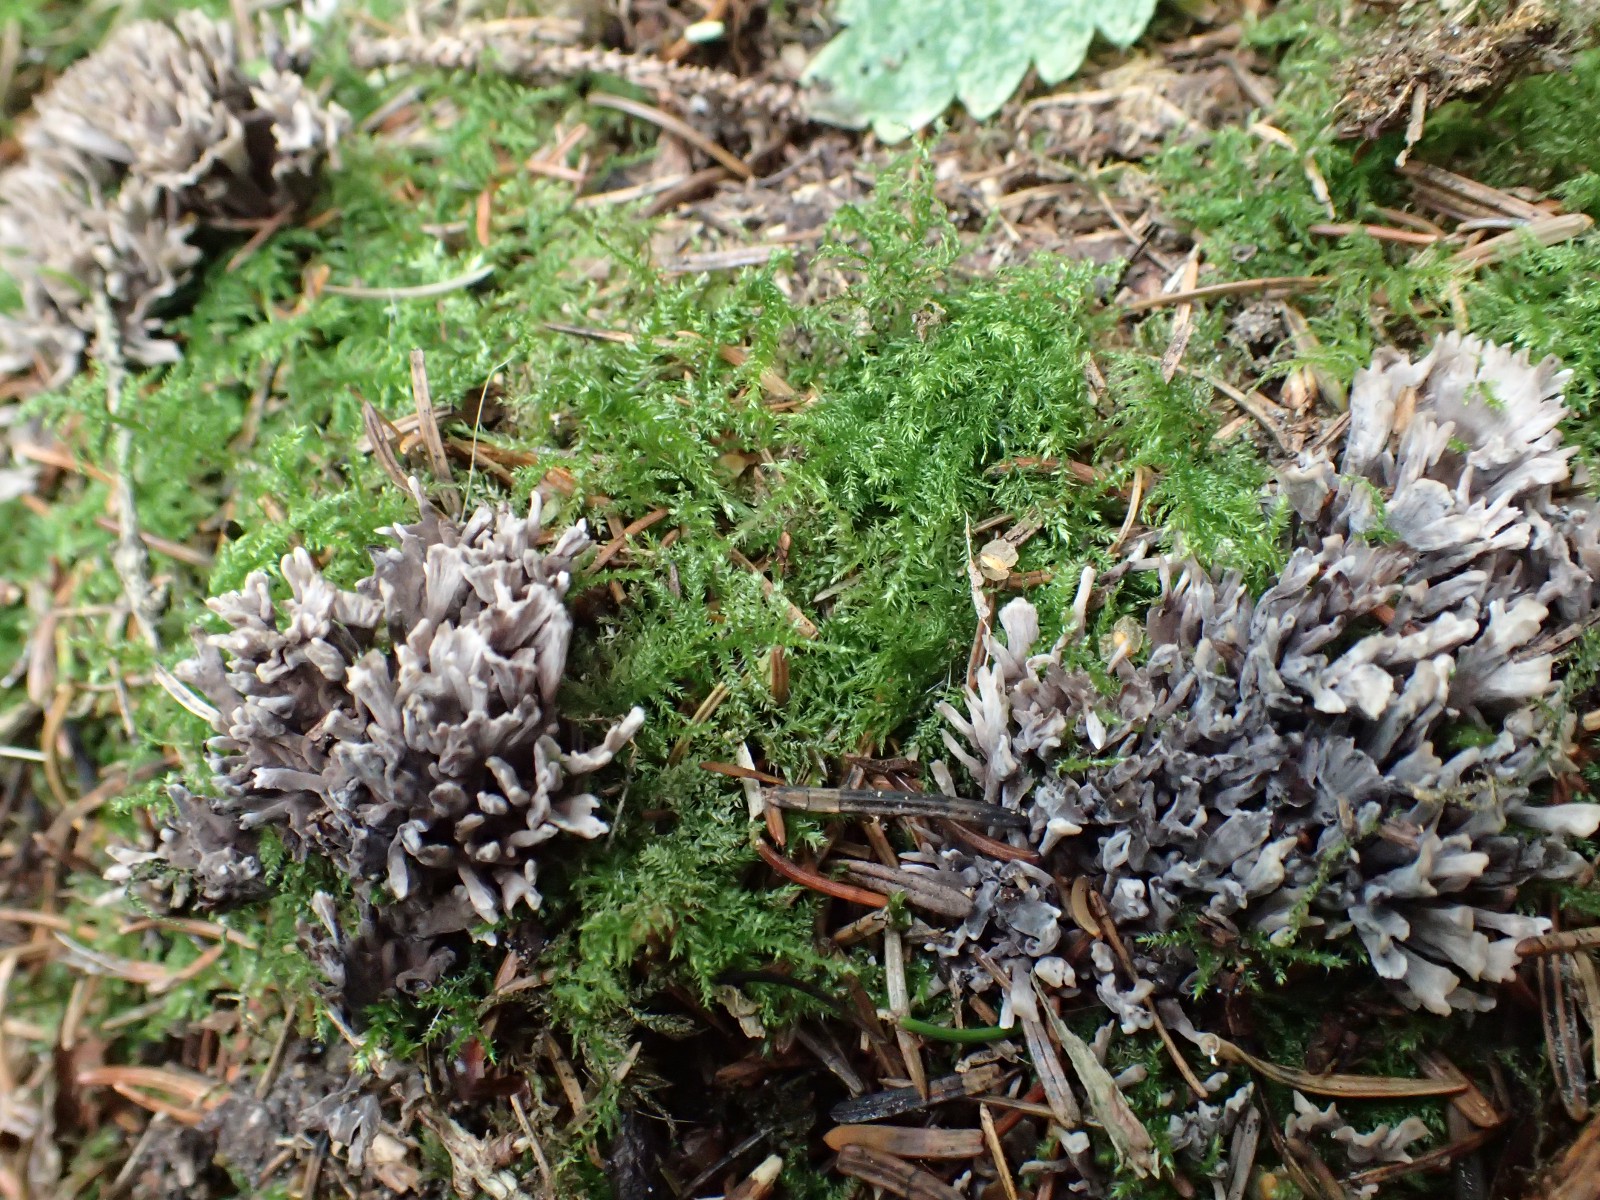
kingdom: Fungi
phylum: Basidiomycota
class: Agaricomycetes
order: Thelephorales
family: Thelephoraceae
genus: Thelephora
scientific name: Thelephora palmata
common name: grenet frynsesvamp
